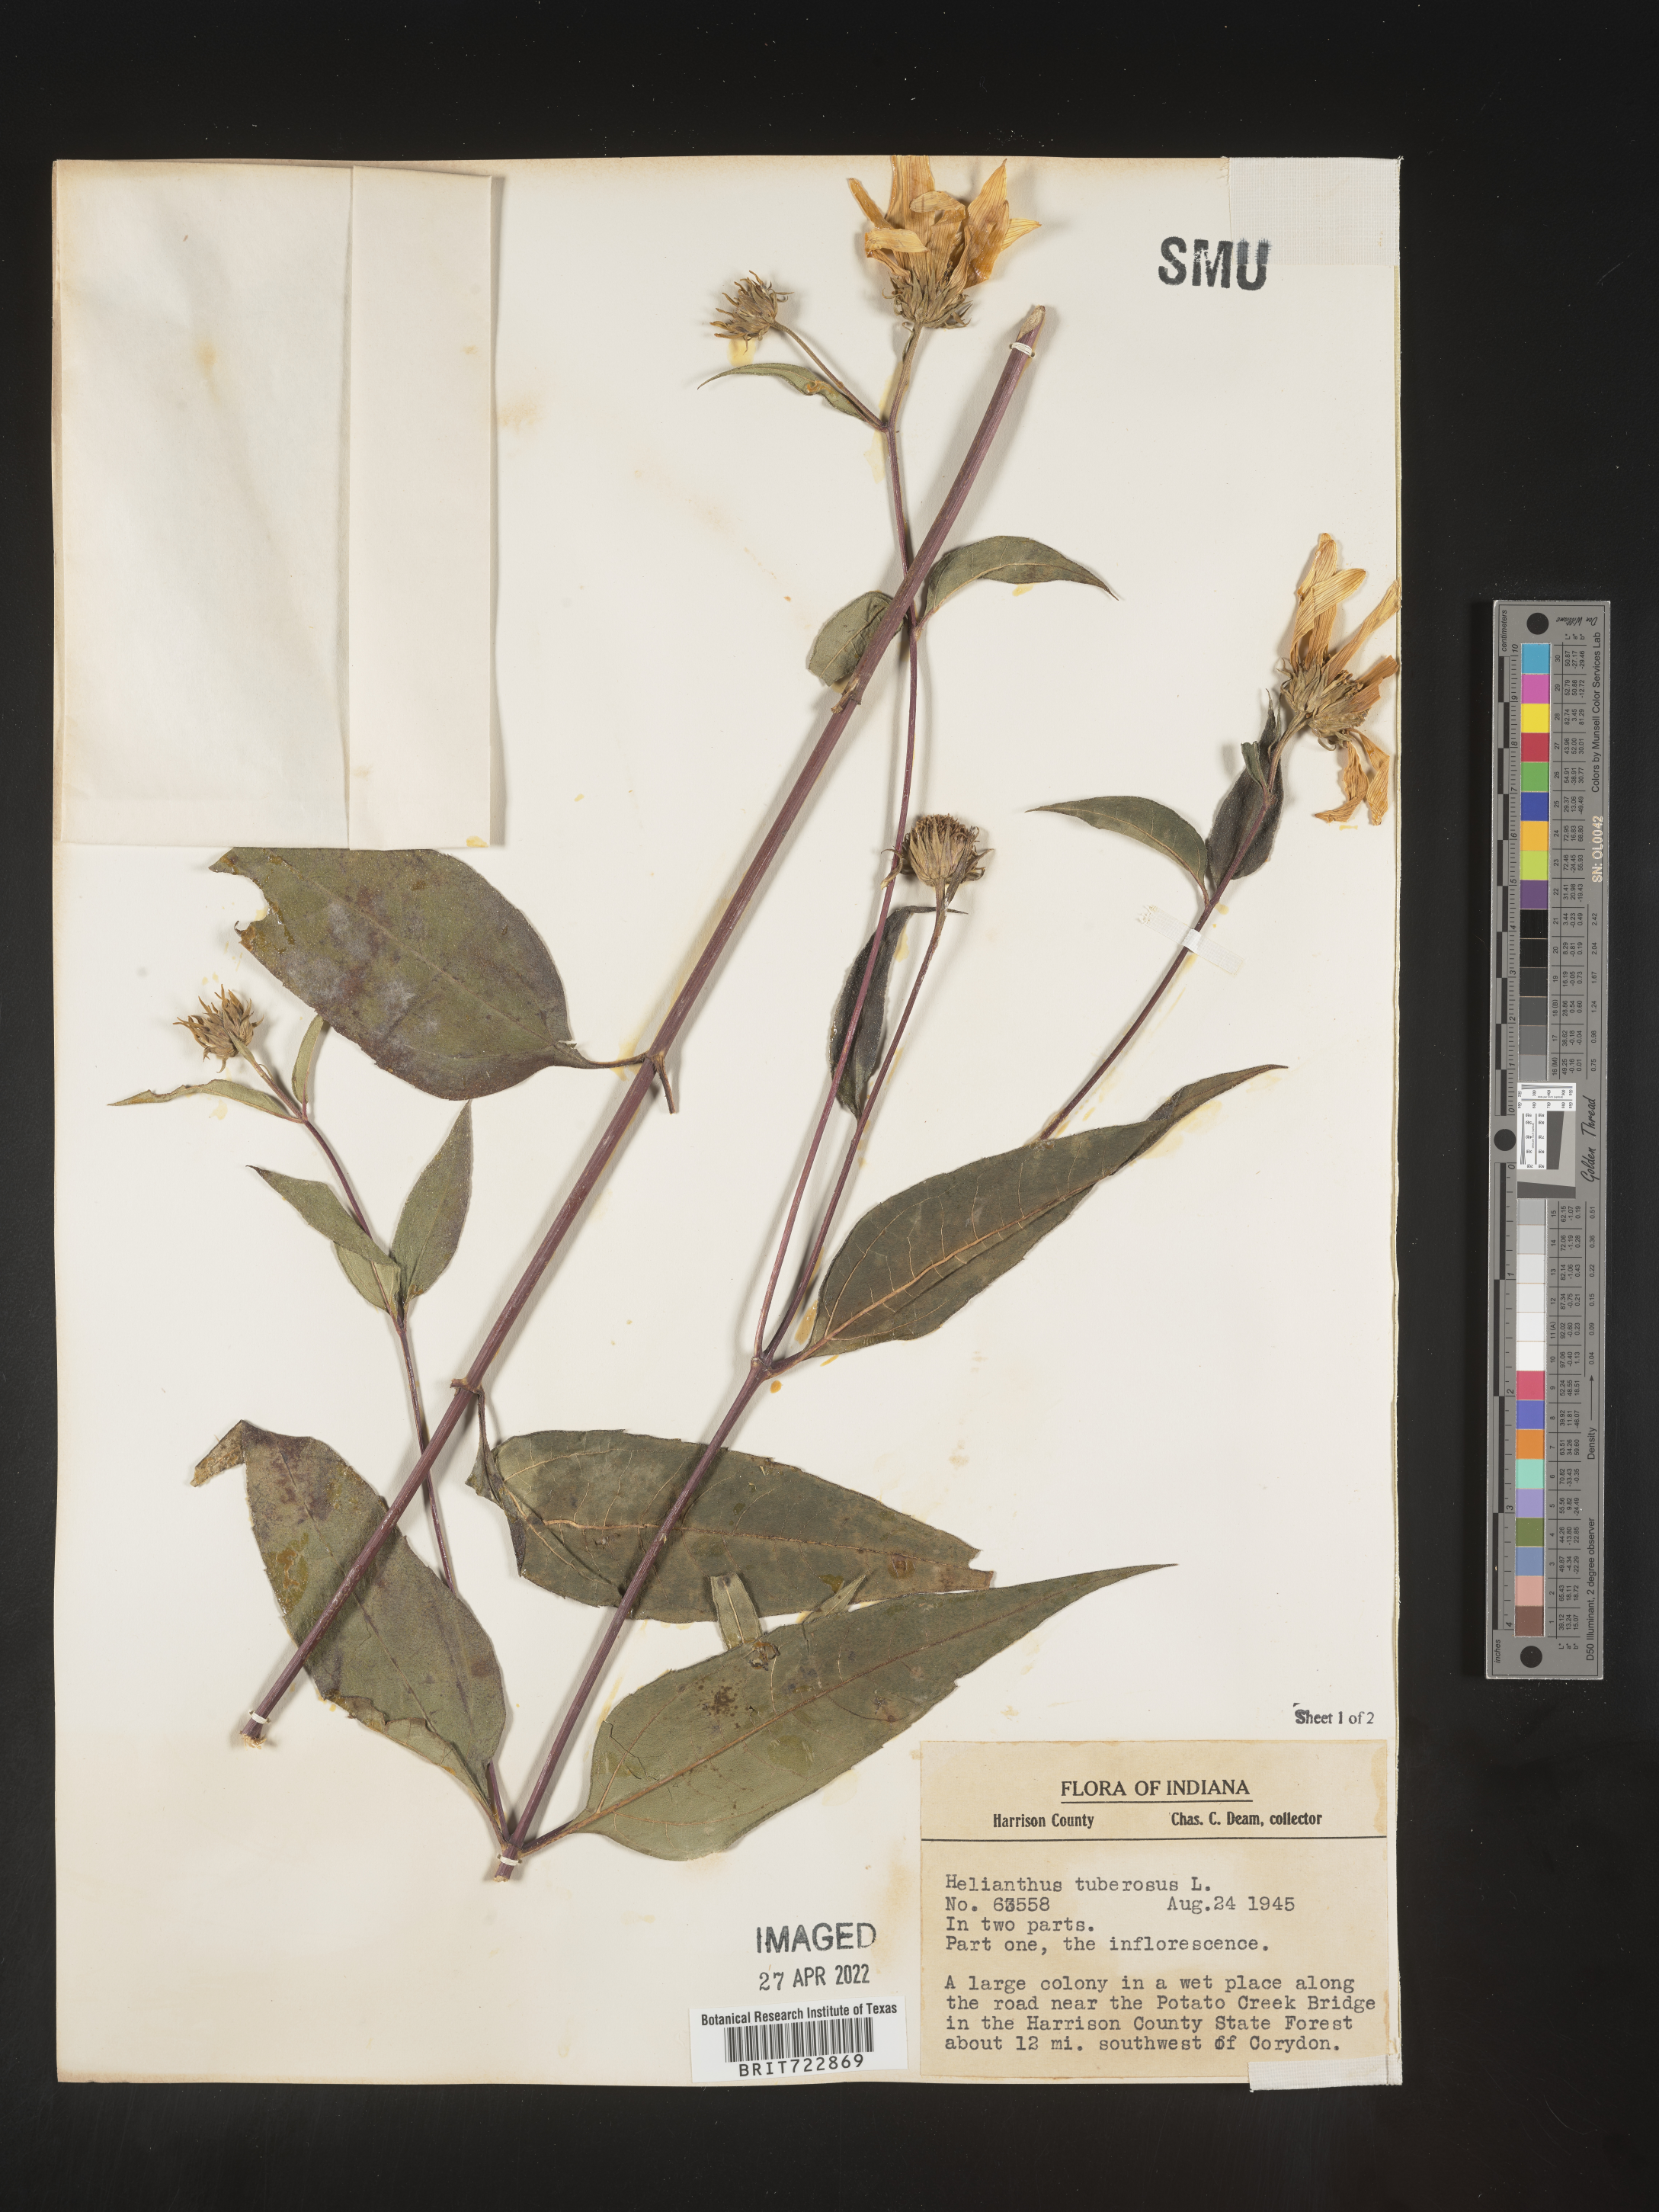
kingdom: Plantae
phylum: Tracheophyta
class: Magnoliopsida
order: Asterales
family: Asteraceae
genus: Helianthus
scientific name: Helianthus tuberosus
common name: Jerusalem artichoke
